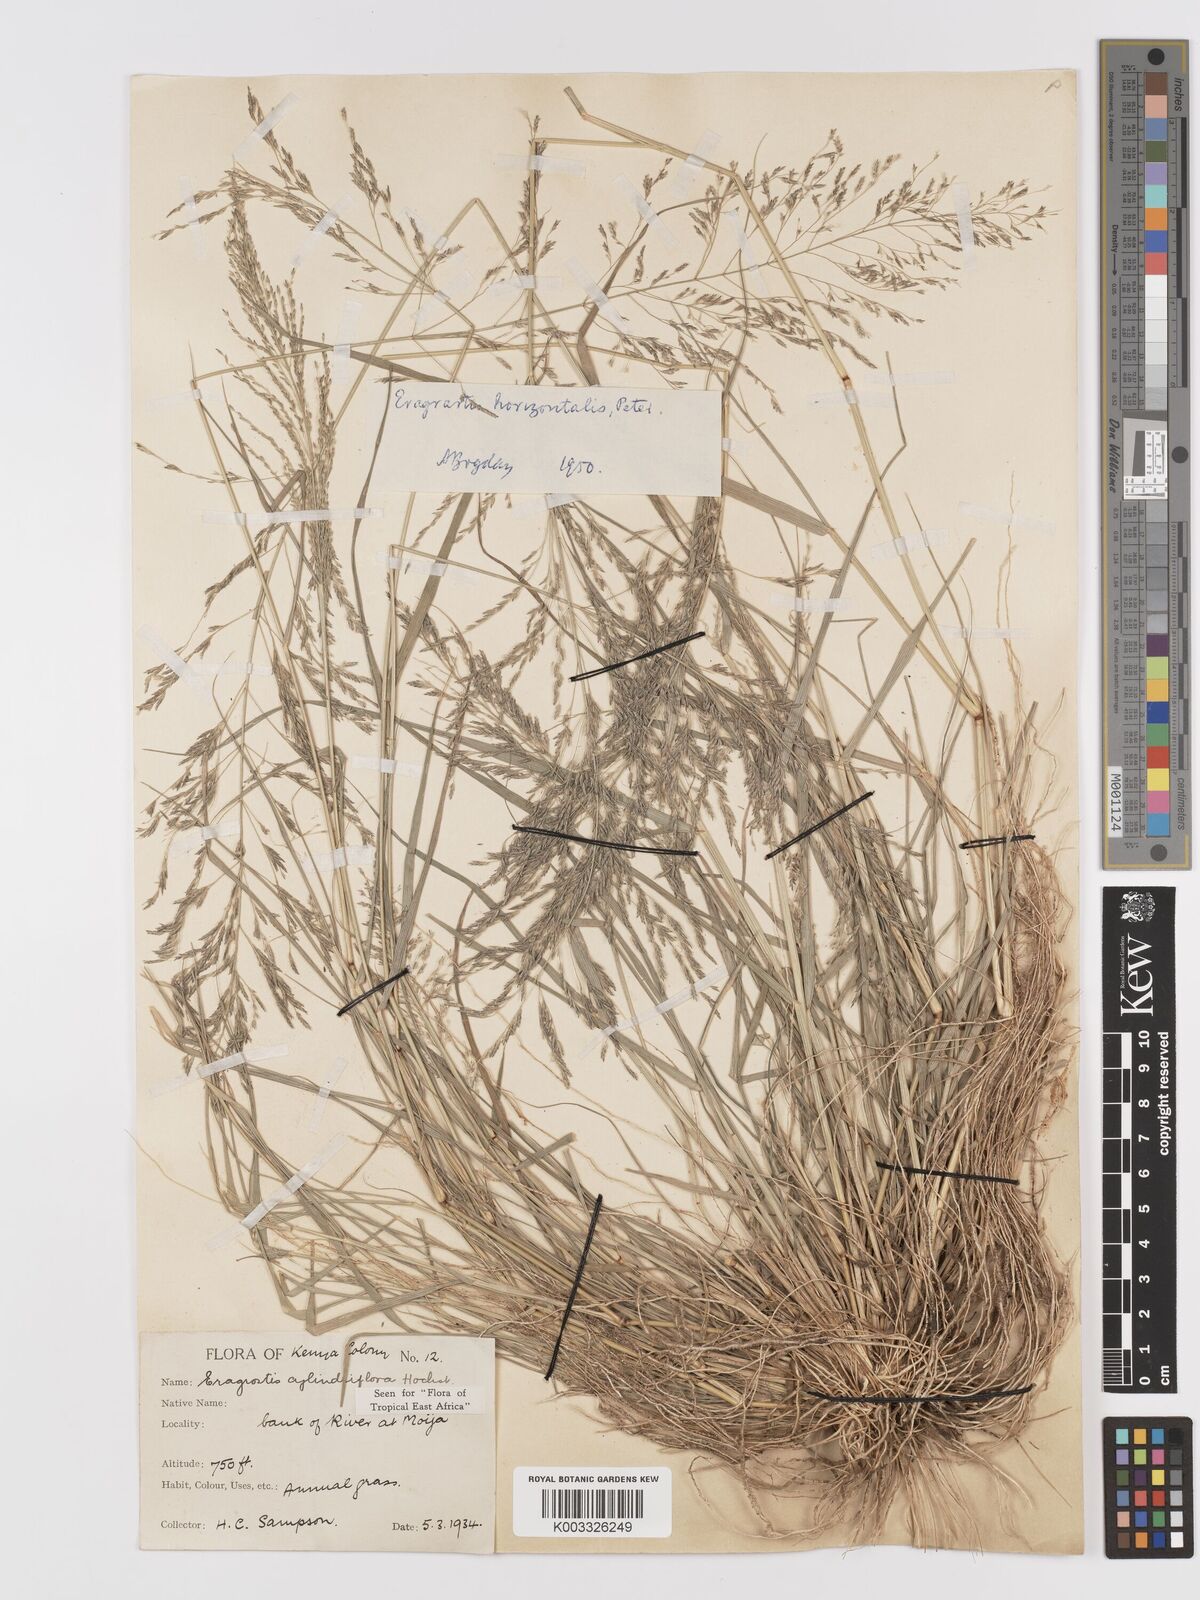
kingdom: Plantae
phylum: Tracheophyta
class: Liliopsida
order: Poales
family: Poaceae
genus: Eragrostis
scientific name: Eragrostis cylindriflora
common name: Cylinderflower lovegrass
